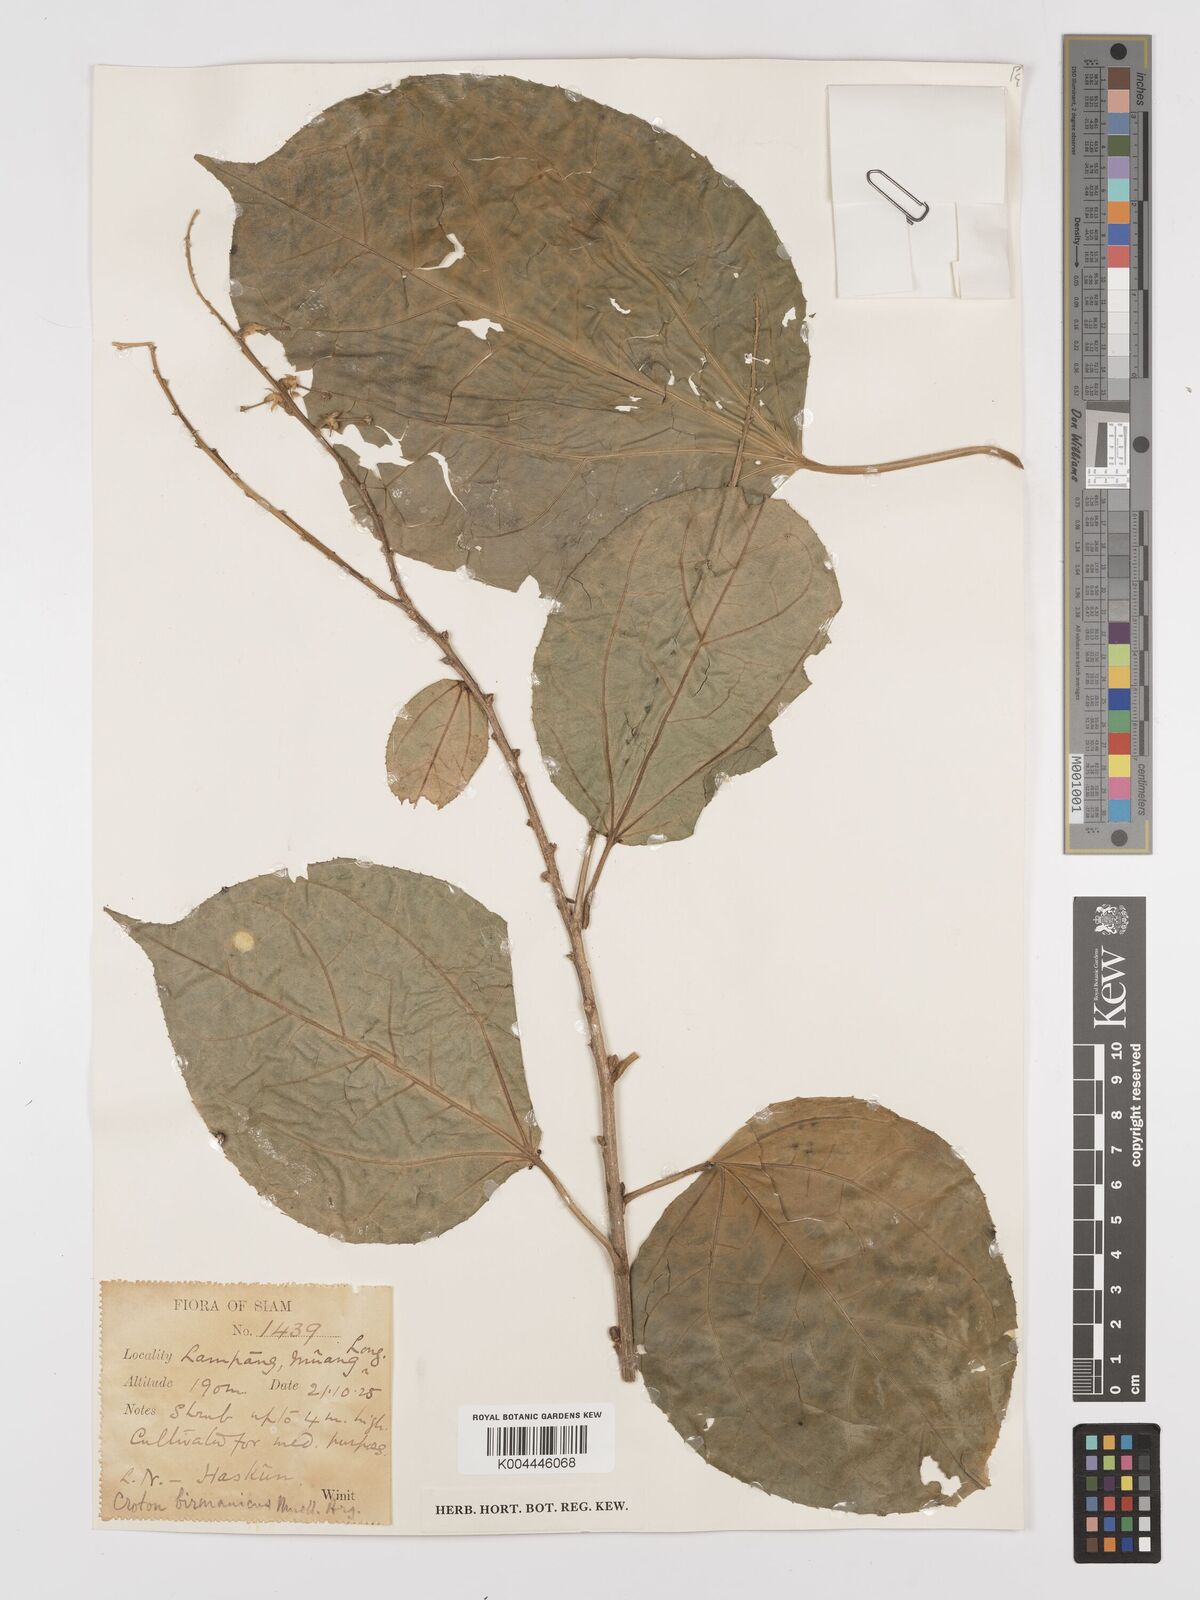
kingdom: Plantae
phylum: Tracheophyta
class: Magnoliopsida
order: Malpighiales
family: Euphorbiaceae
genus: Croton
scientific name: Croton tiglium
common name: Purging croton
